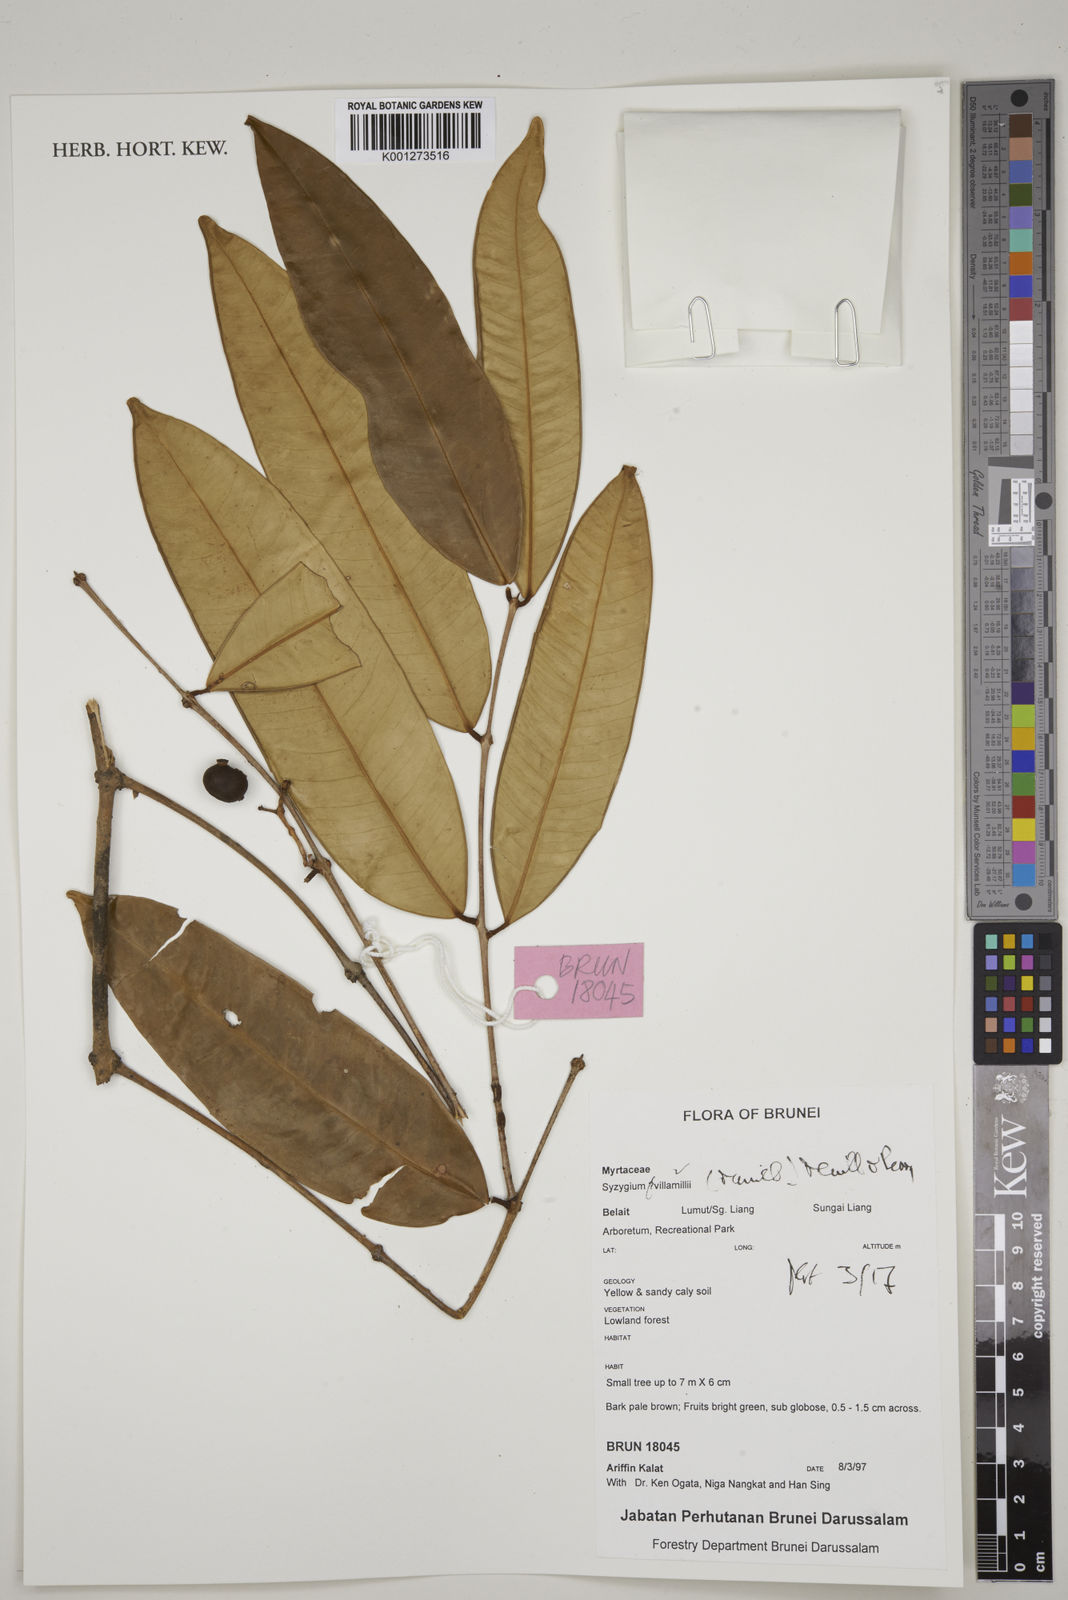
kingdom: Plantae
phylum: Tracheophyta
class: Magnoliopsida
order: Myrtales
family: Myrtaceae
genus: Syzygium
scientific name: Syzygium villamilii
